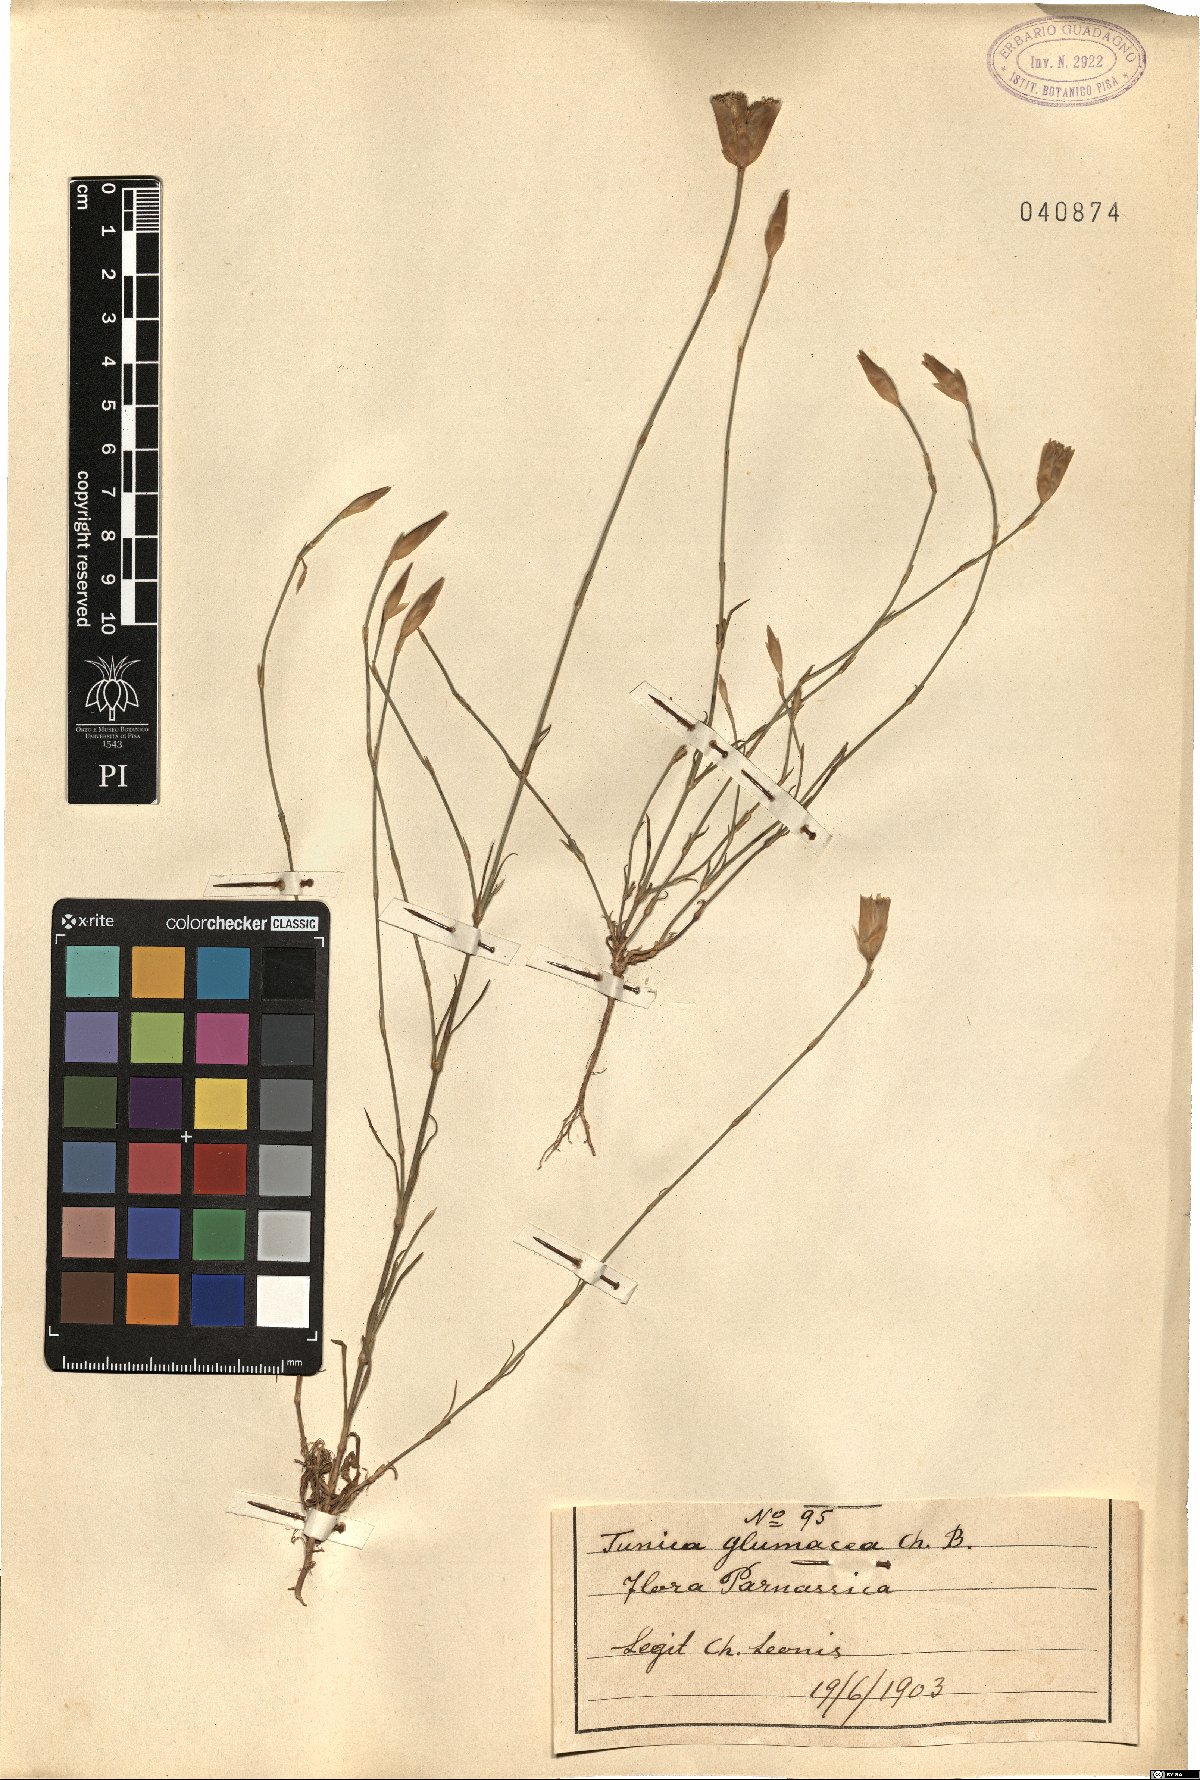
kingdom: Plantae
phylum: Tracheophyta
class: Magnoliopsida
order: Caryophyllales
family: Caryophyllaceae
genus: Petrorhagia
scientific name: Petrorhagia glumacea
